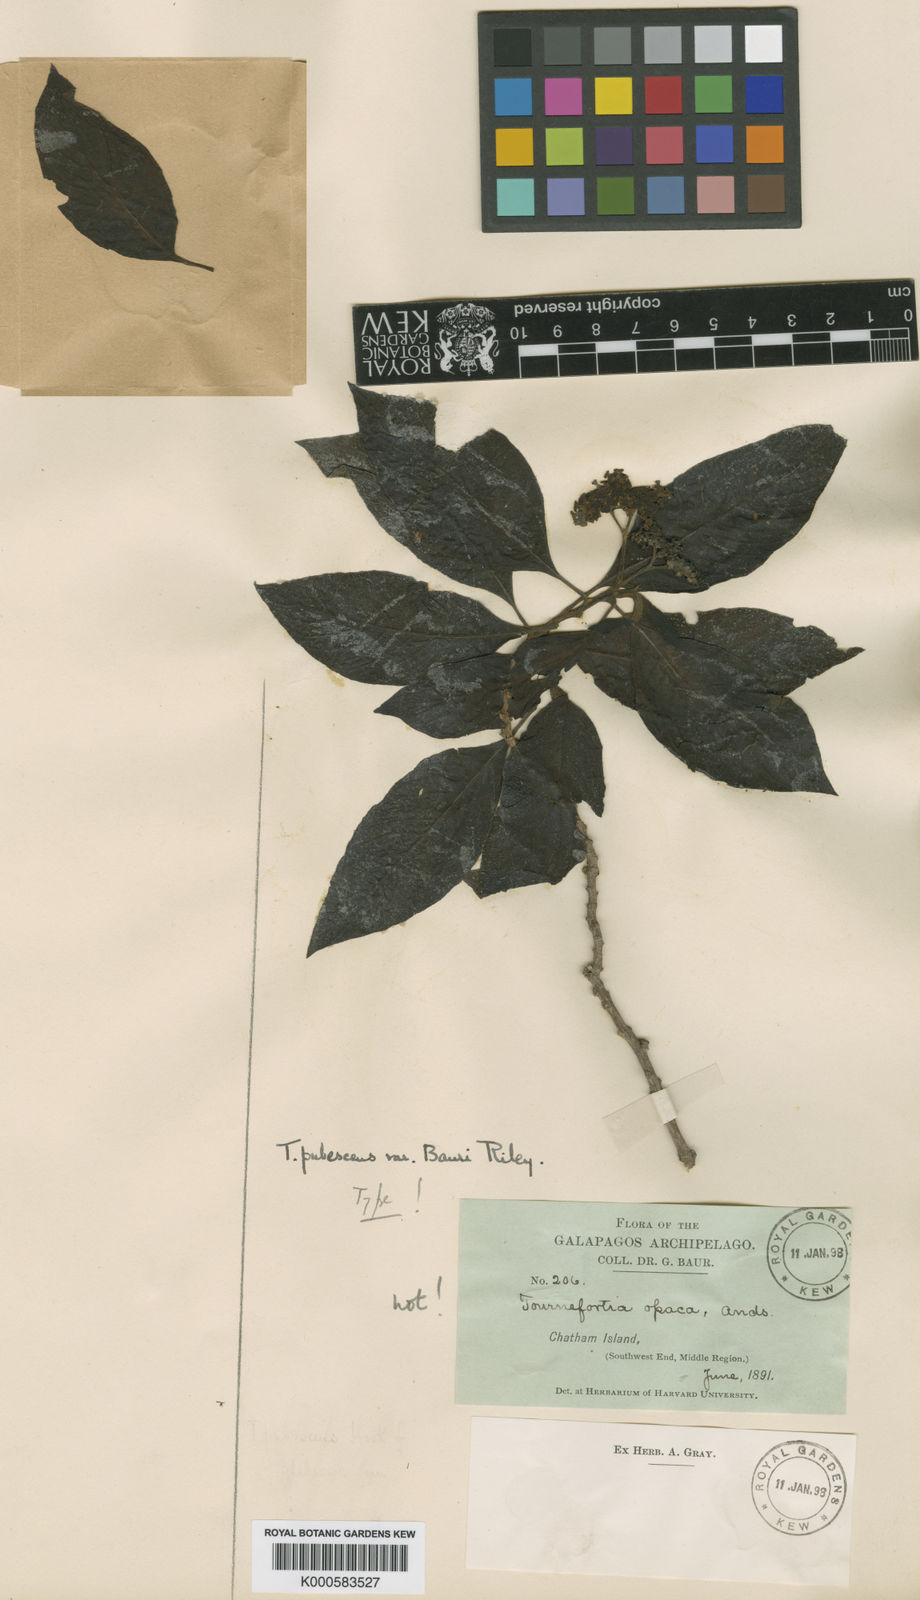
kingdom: Plantae
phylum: Tracheophyta
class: Magnoliopsida
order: Boraginales
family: Heliotropiaceae
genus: Tournefortia
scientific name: Tournefortia pubescens
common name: White-haired tournefortia
